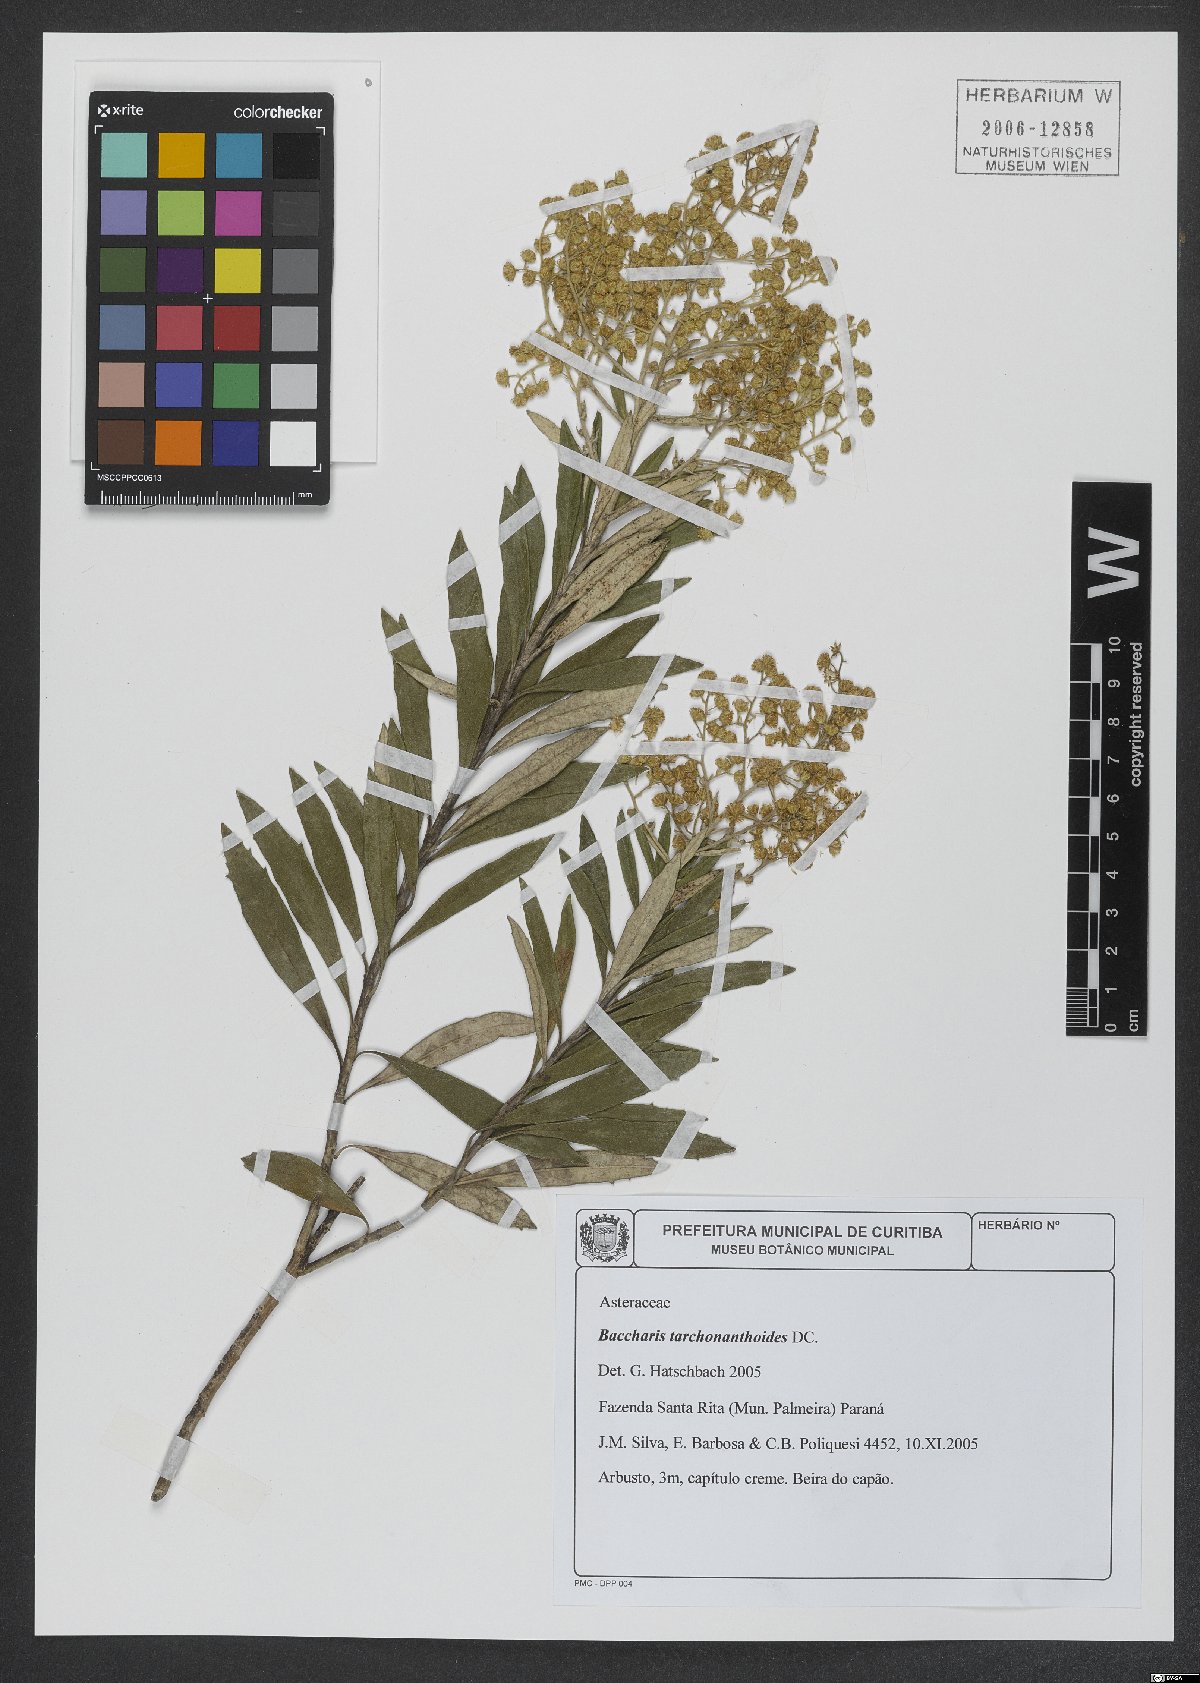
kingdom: Plantae
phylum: Tracheophyta
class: Magnoliopsida
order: Asterales
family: Asteraceae
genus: Baccharis
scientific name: Baccharis tarchonanthoides
